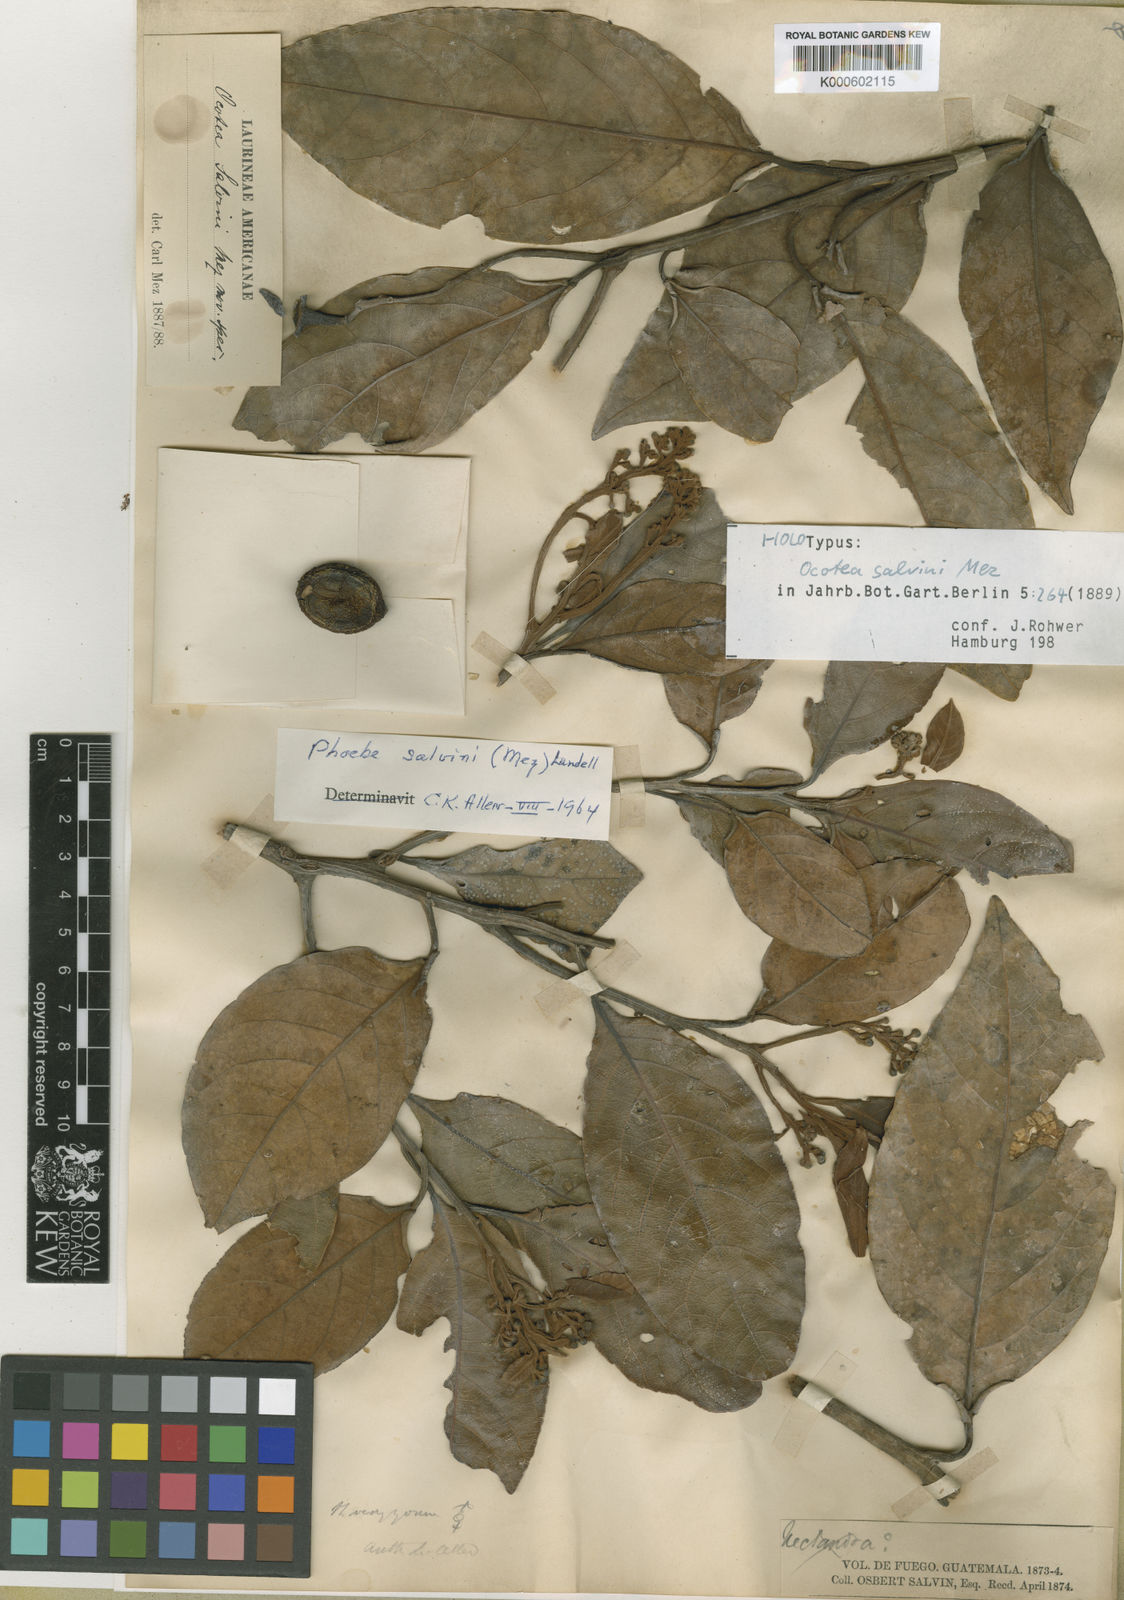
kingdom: Plantae
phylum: Tracheophyta
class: Magnoliopsida
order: Laurales
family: Lauraceae
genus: Ocotea
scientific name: Ocotea salvinii
